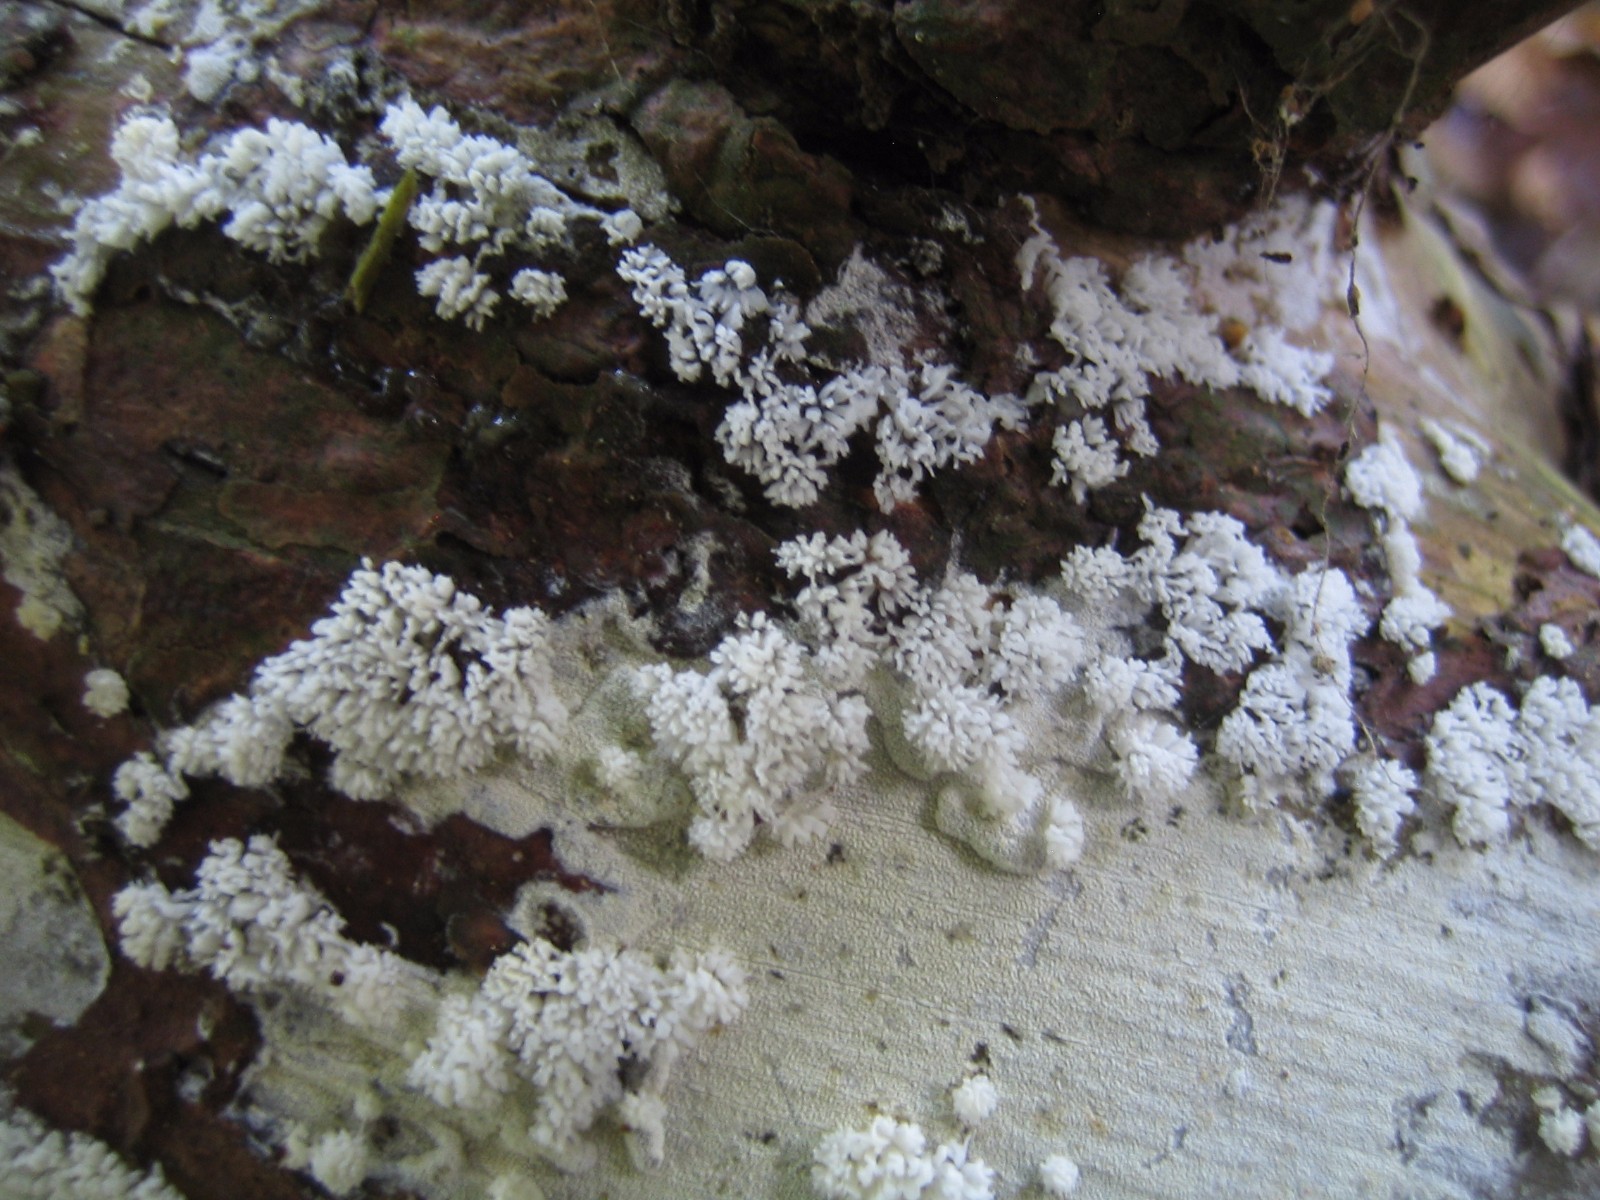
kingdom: Protozoa
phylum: Mycetozoa
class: Protosteliomycetes
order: Ceratiomyxales
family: Ceratiomyxaceae
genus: Ceratiomyxa
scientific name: Ceratiomyxa fruticulosa
